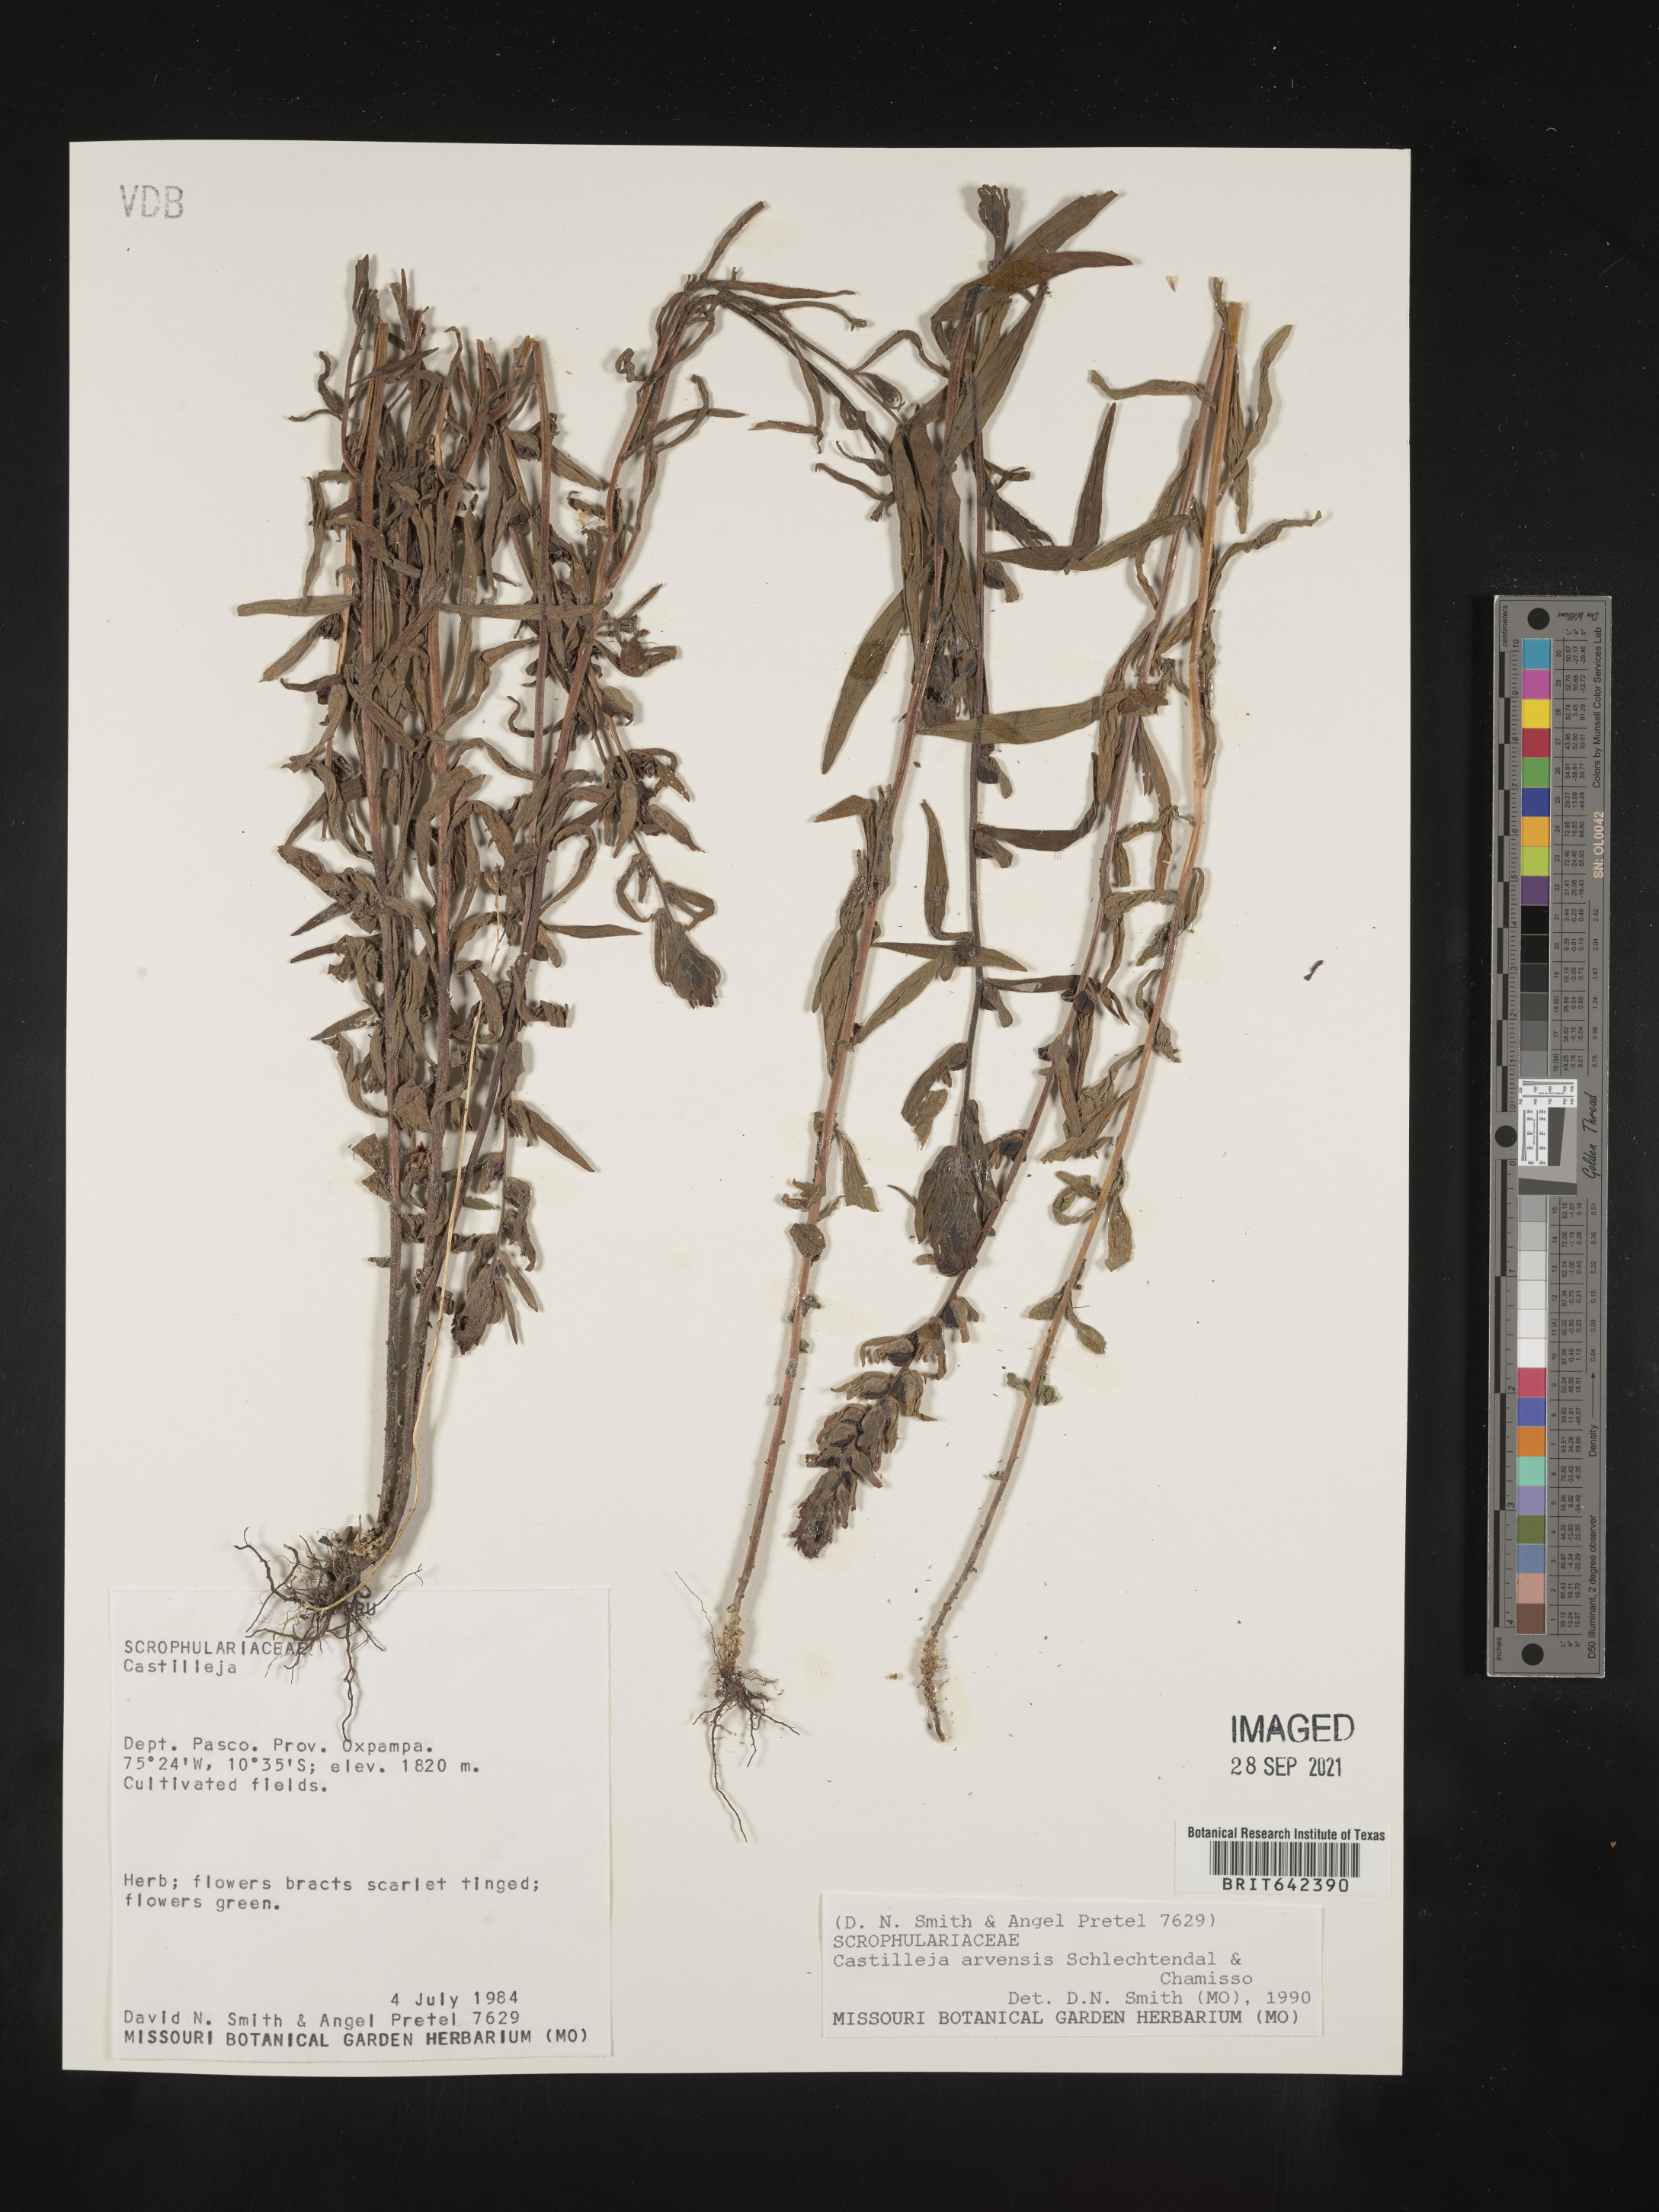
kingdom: Plantae
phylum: Tracheophyta
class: Magnoliopsida
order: Lamiales
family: Orobanchaceae
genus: Castilleja
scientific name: Castilleja
